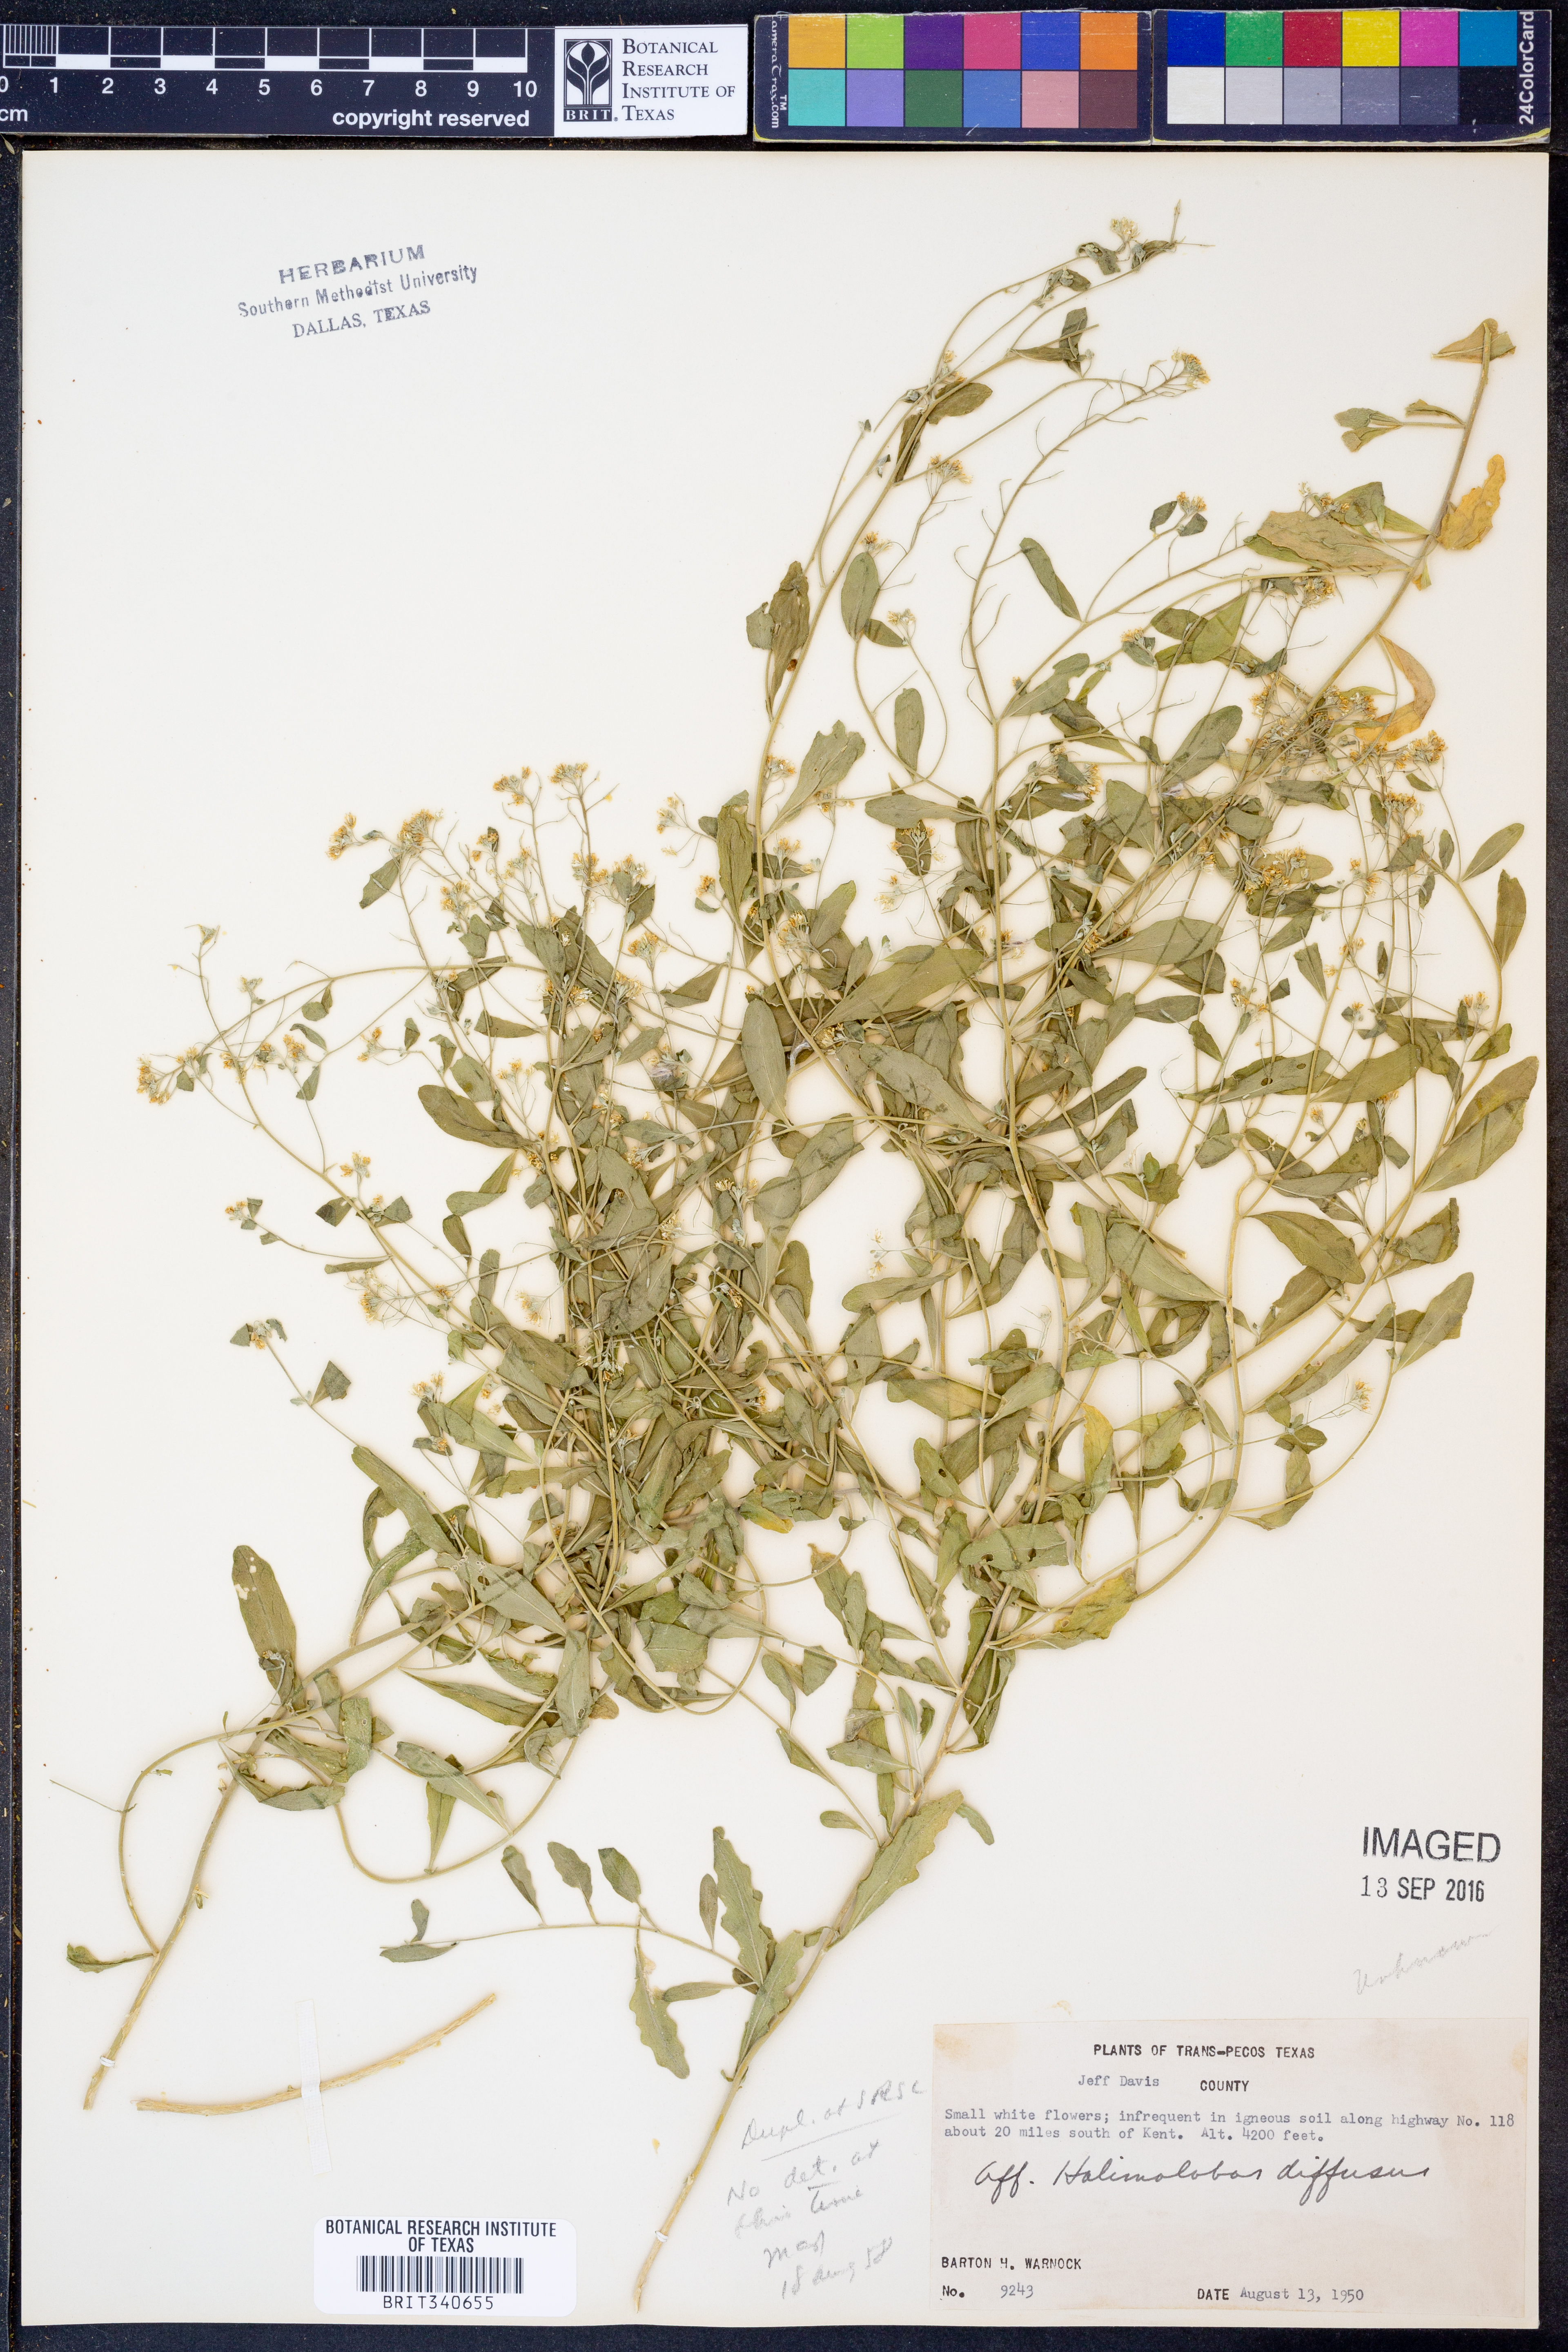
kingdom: Plantae
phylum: Tracheophyta
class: Magnoliopsida
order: Brassicales
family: Brassicaceae
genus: Halimolobos
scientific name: Halimolobos diffusus
